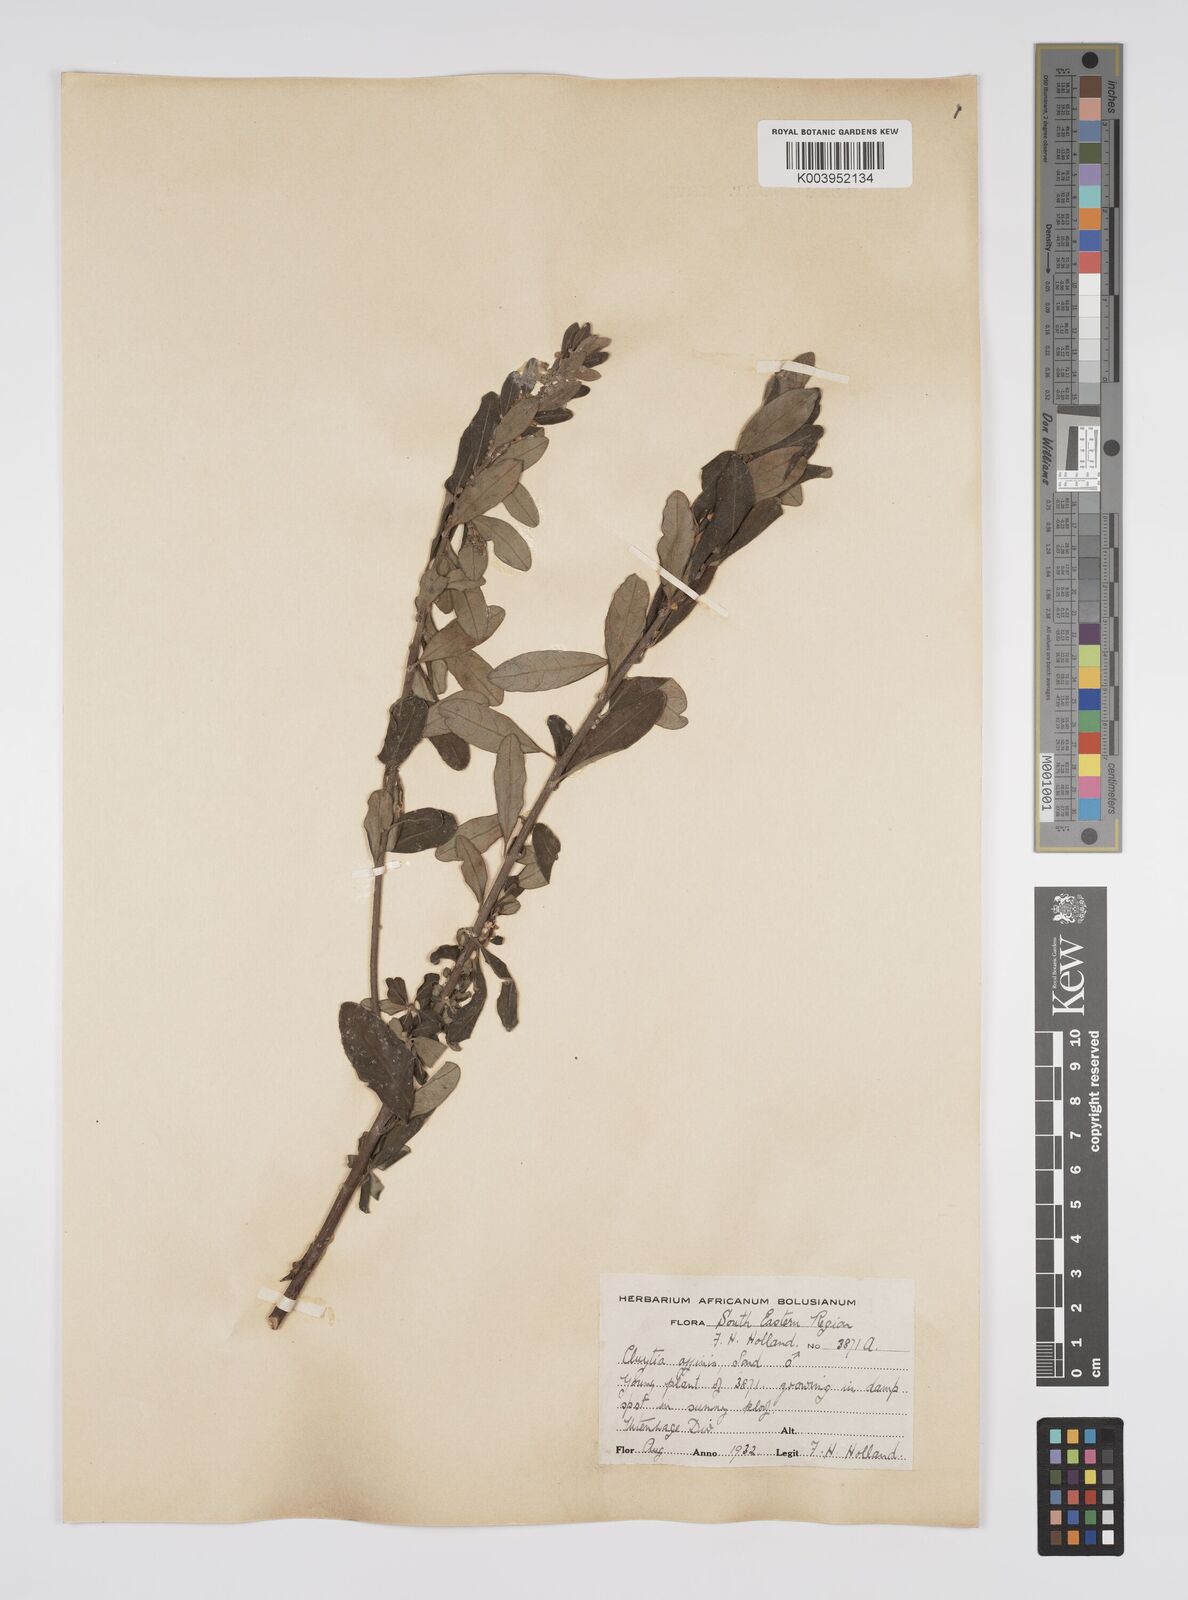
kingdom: Plantae
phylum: Tracheophyta
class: Magnoliopsida
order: Malpighiales
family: Peraceae
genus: Clutia
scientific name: Clutia affinis
